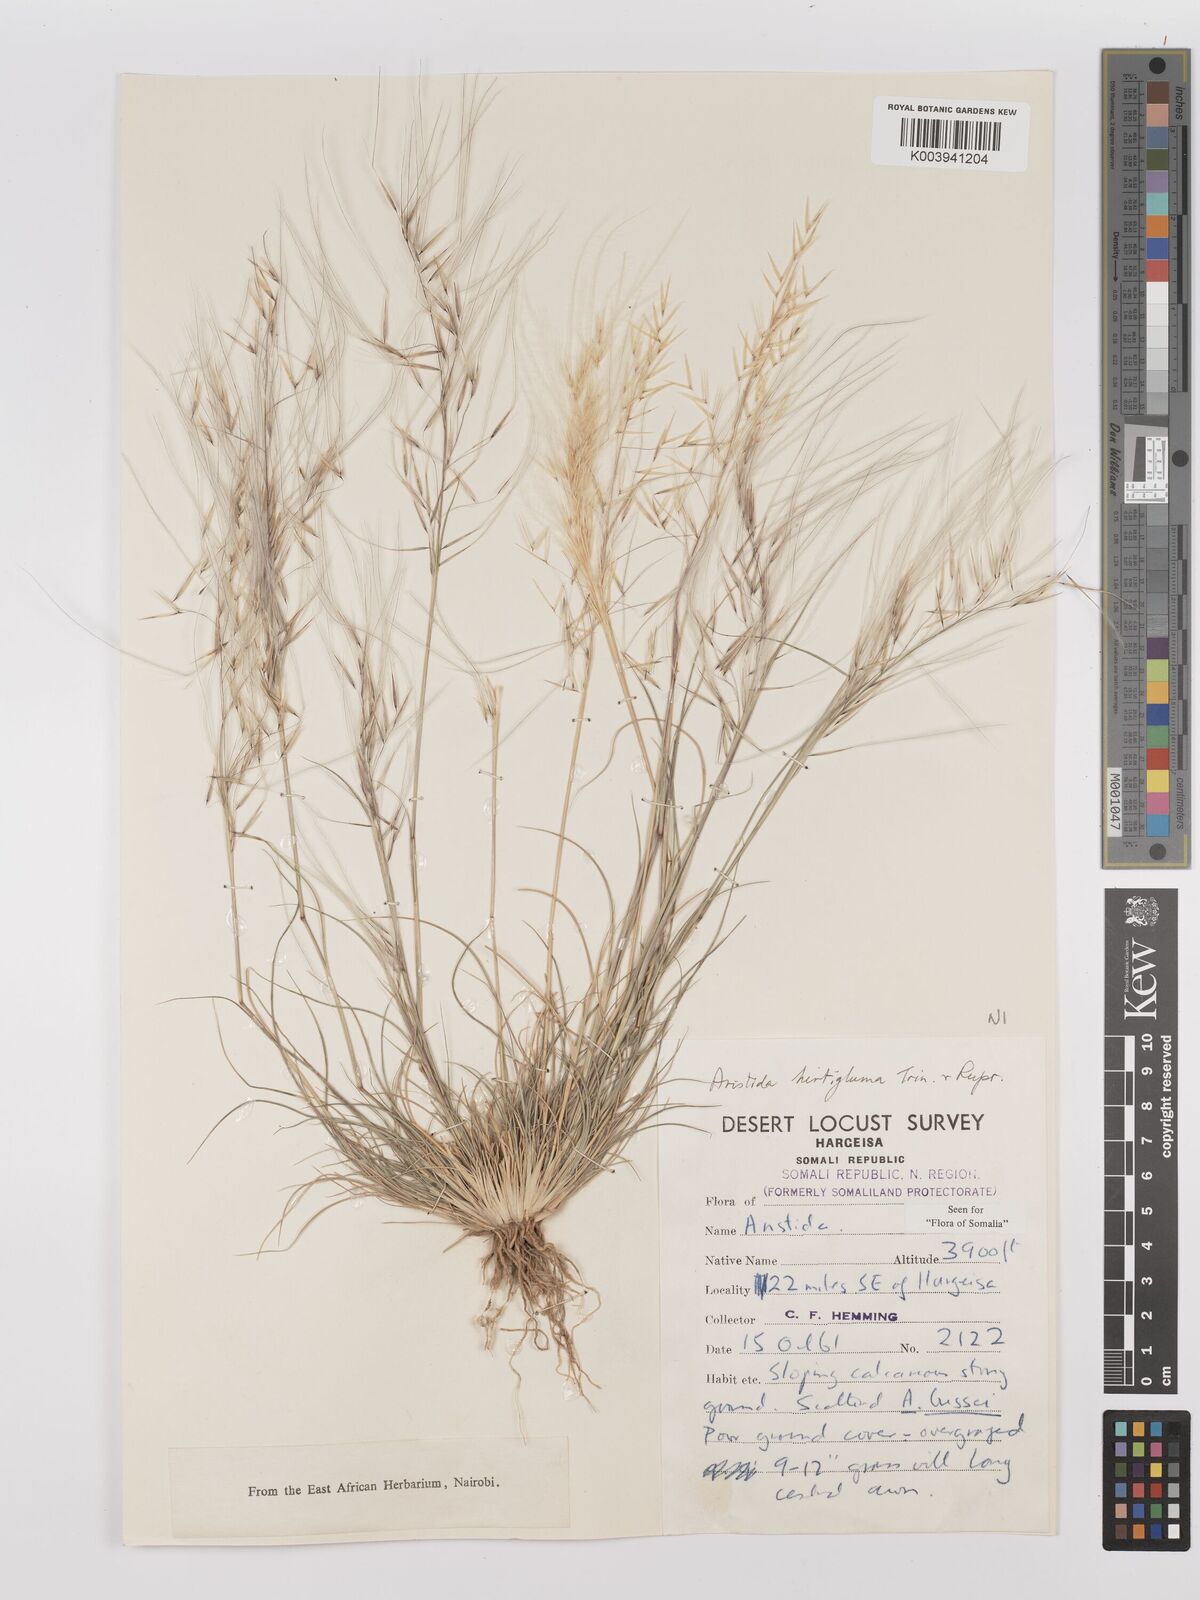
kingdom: Plantae
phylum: Tracheophyta
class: Liliopsida
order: Poales
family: Poaceae
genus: Stipagrostis
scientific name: Stipagrostis hirtigluma
